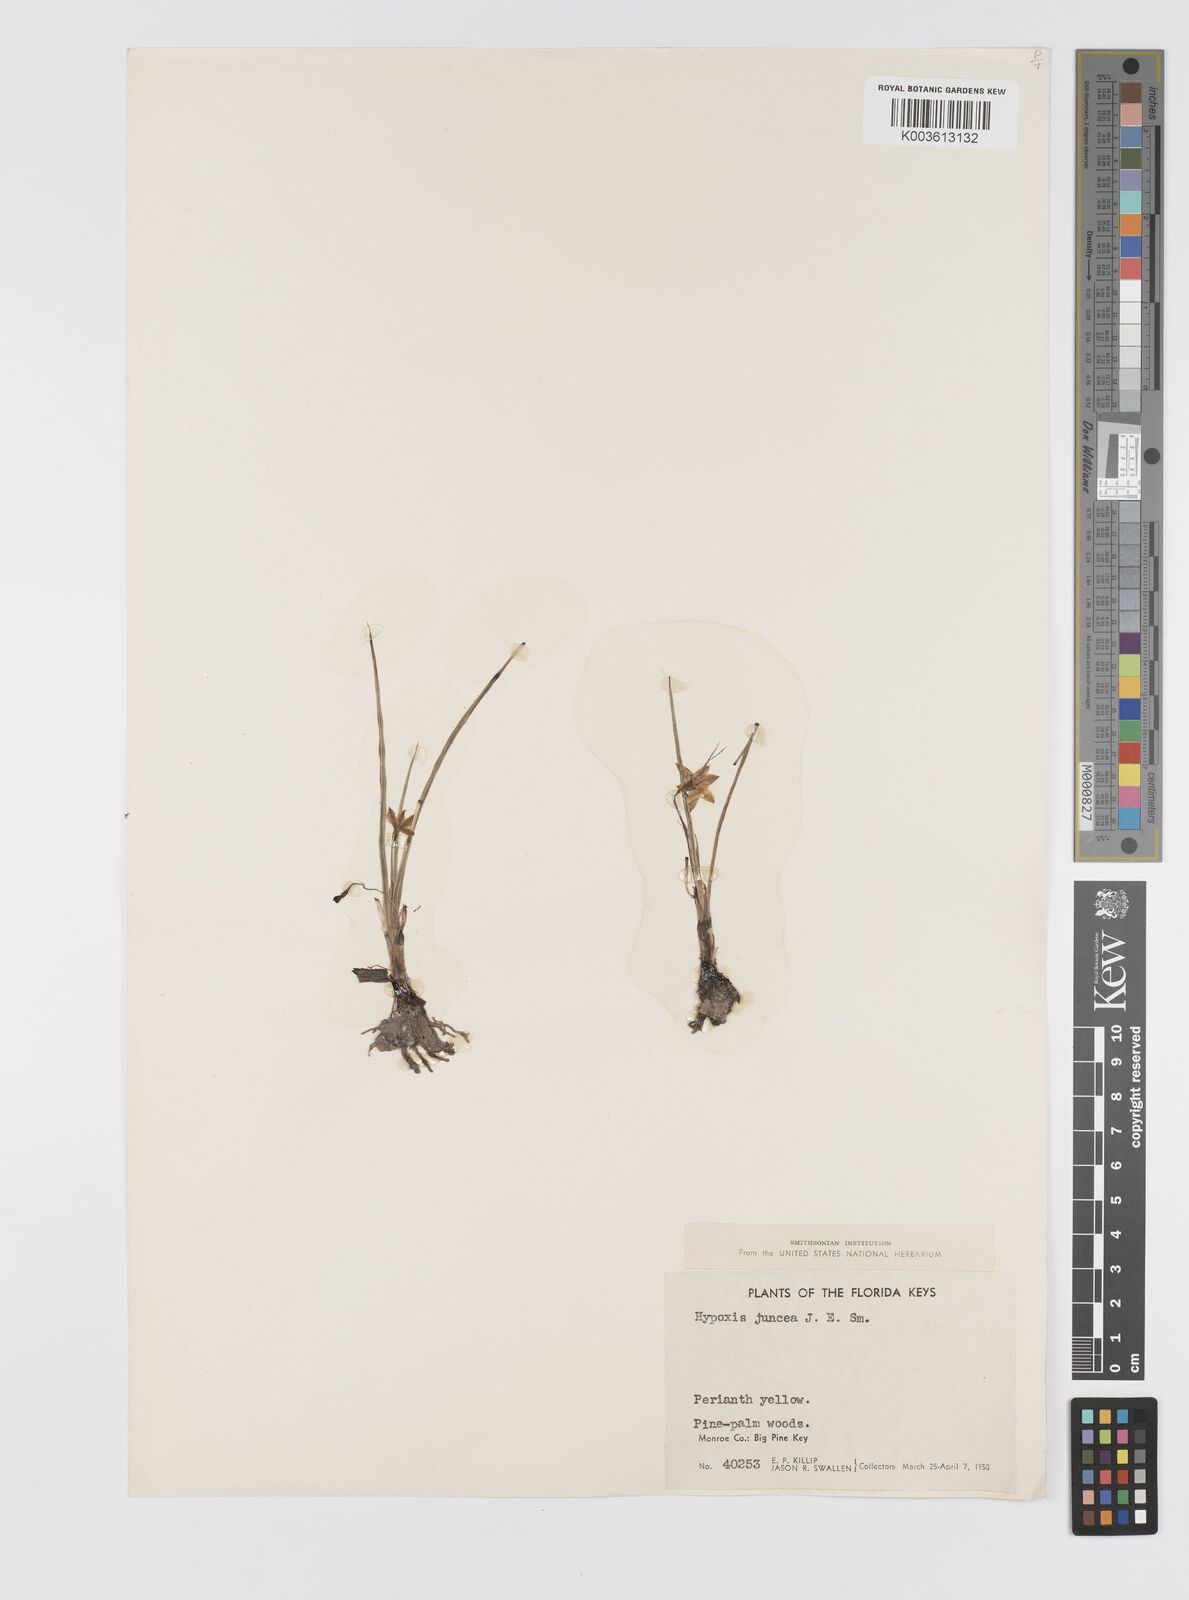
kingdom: Plantae
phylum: Tracheophyta
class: Liliopsida
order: Asparagales
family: Hypoxidaceae
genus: Hypoxis
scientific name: Hypoxis juncea
